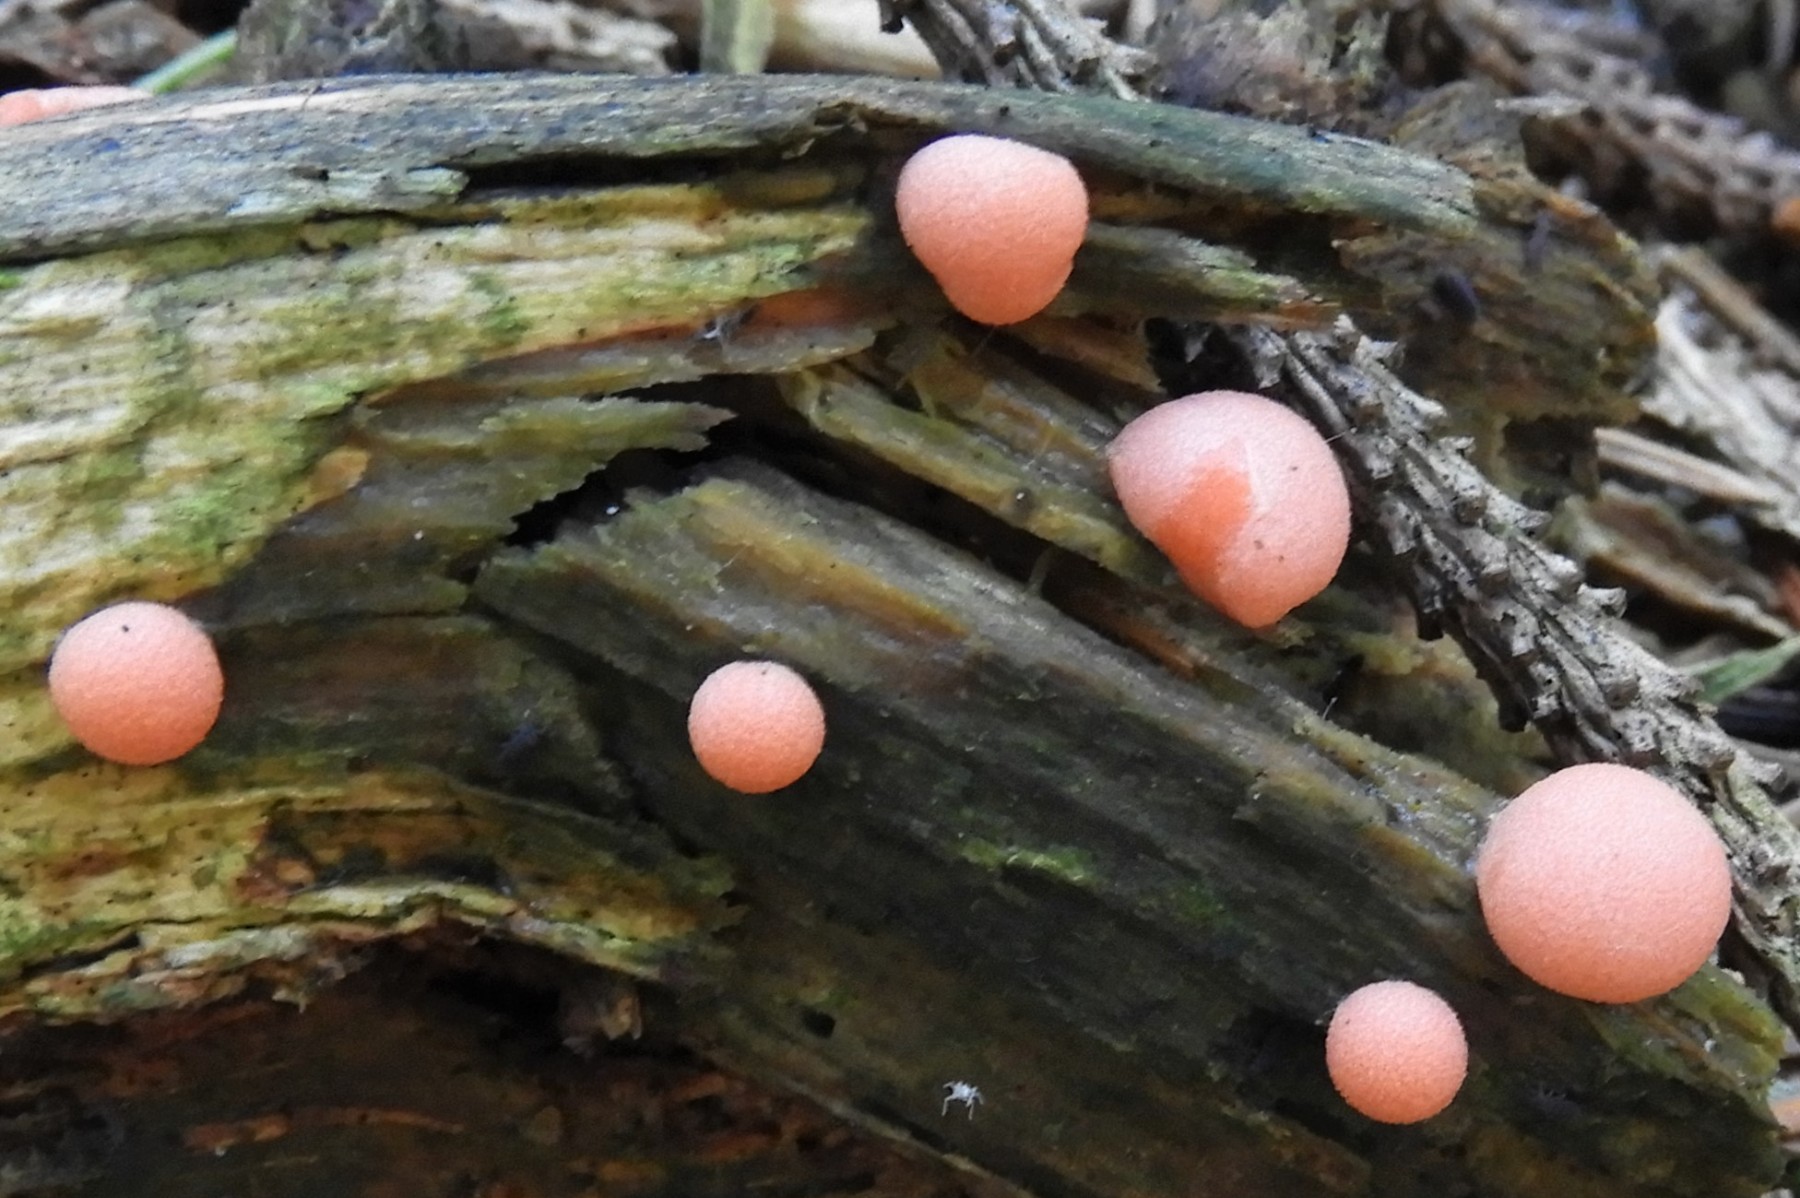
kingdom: Protozoa
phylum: Mycetozoa
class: Myxomycetes
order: Cribrariales
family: Tubiferaceae
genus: Lycogala
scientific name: Lycogala epidendrum
